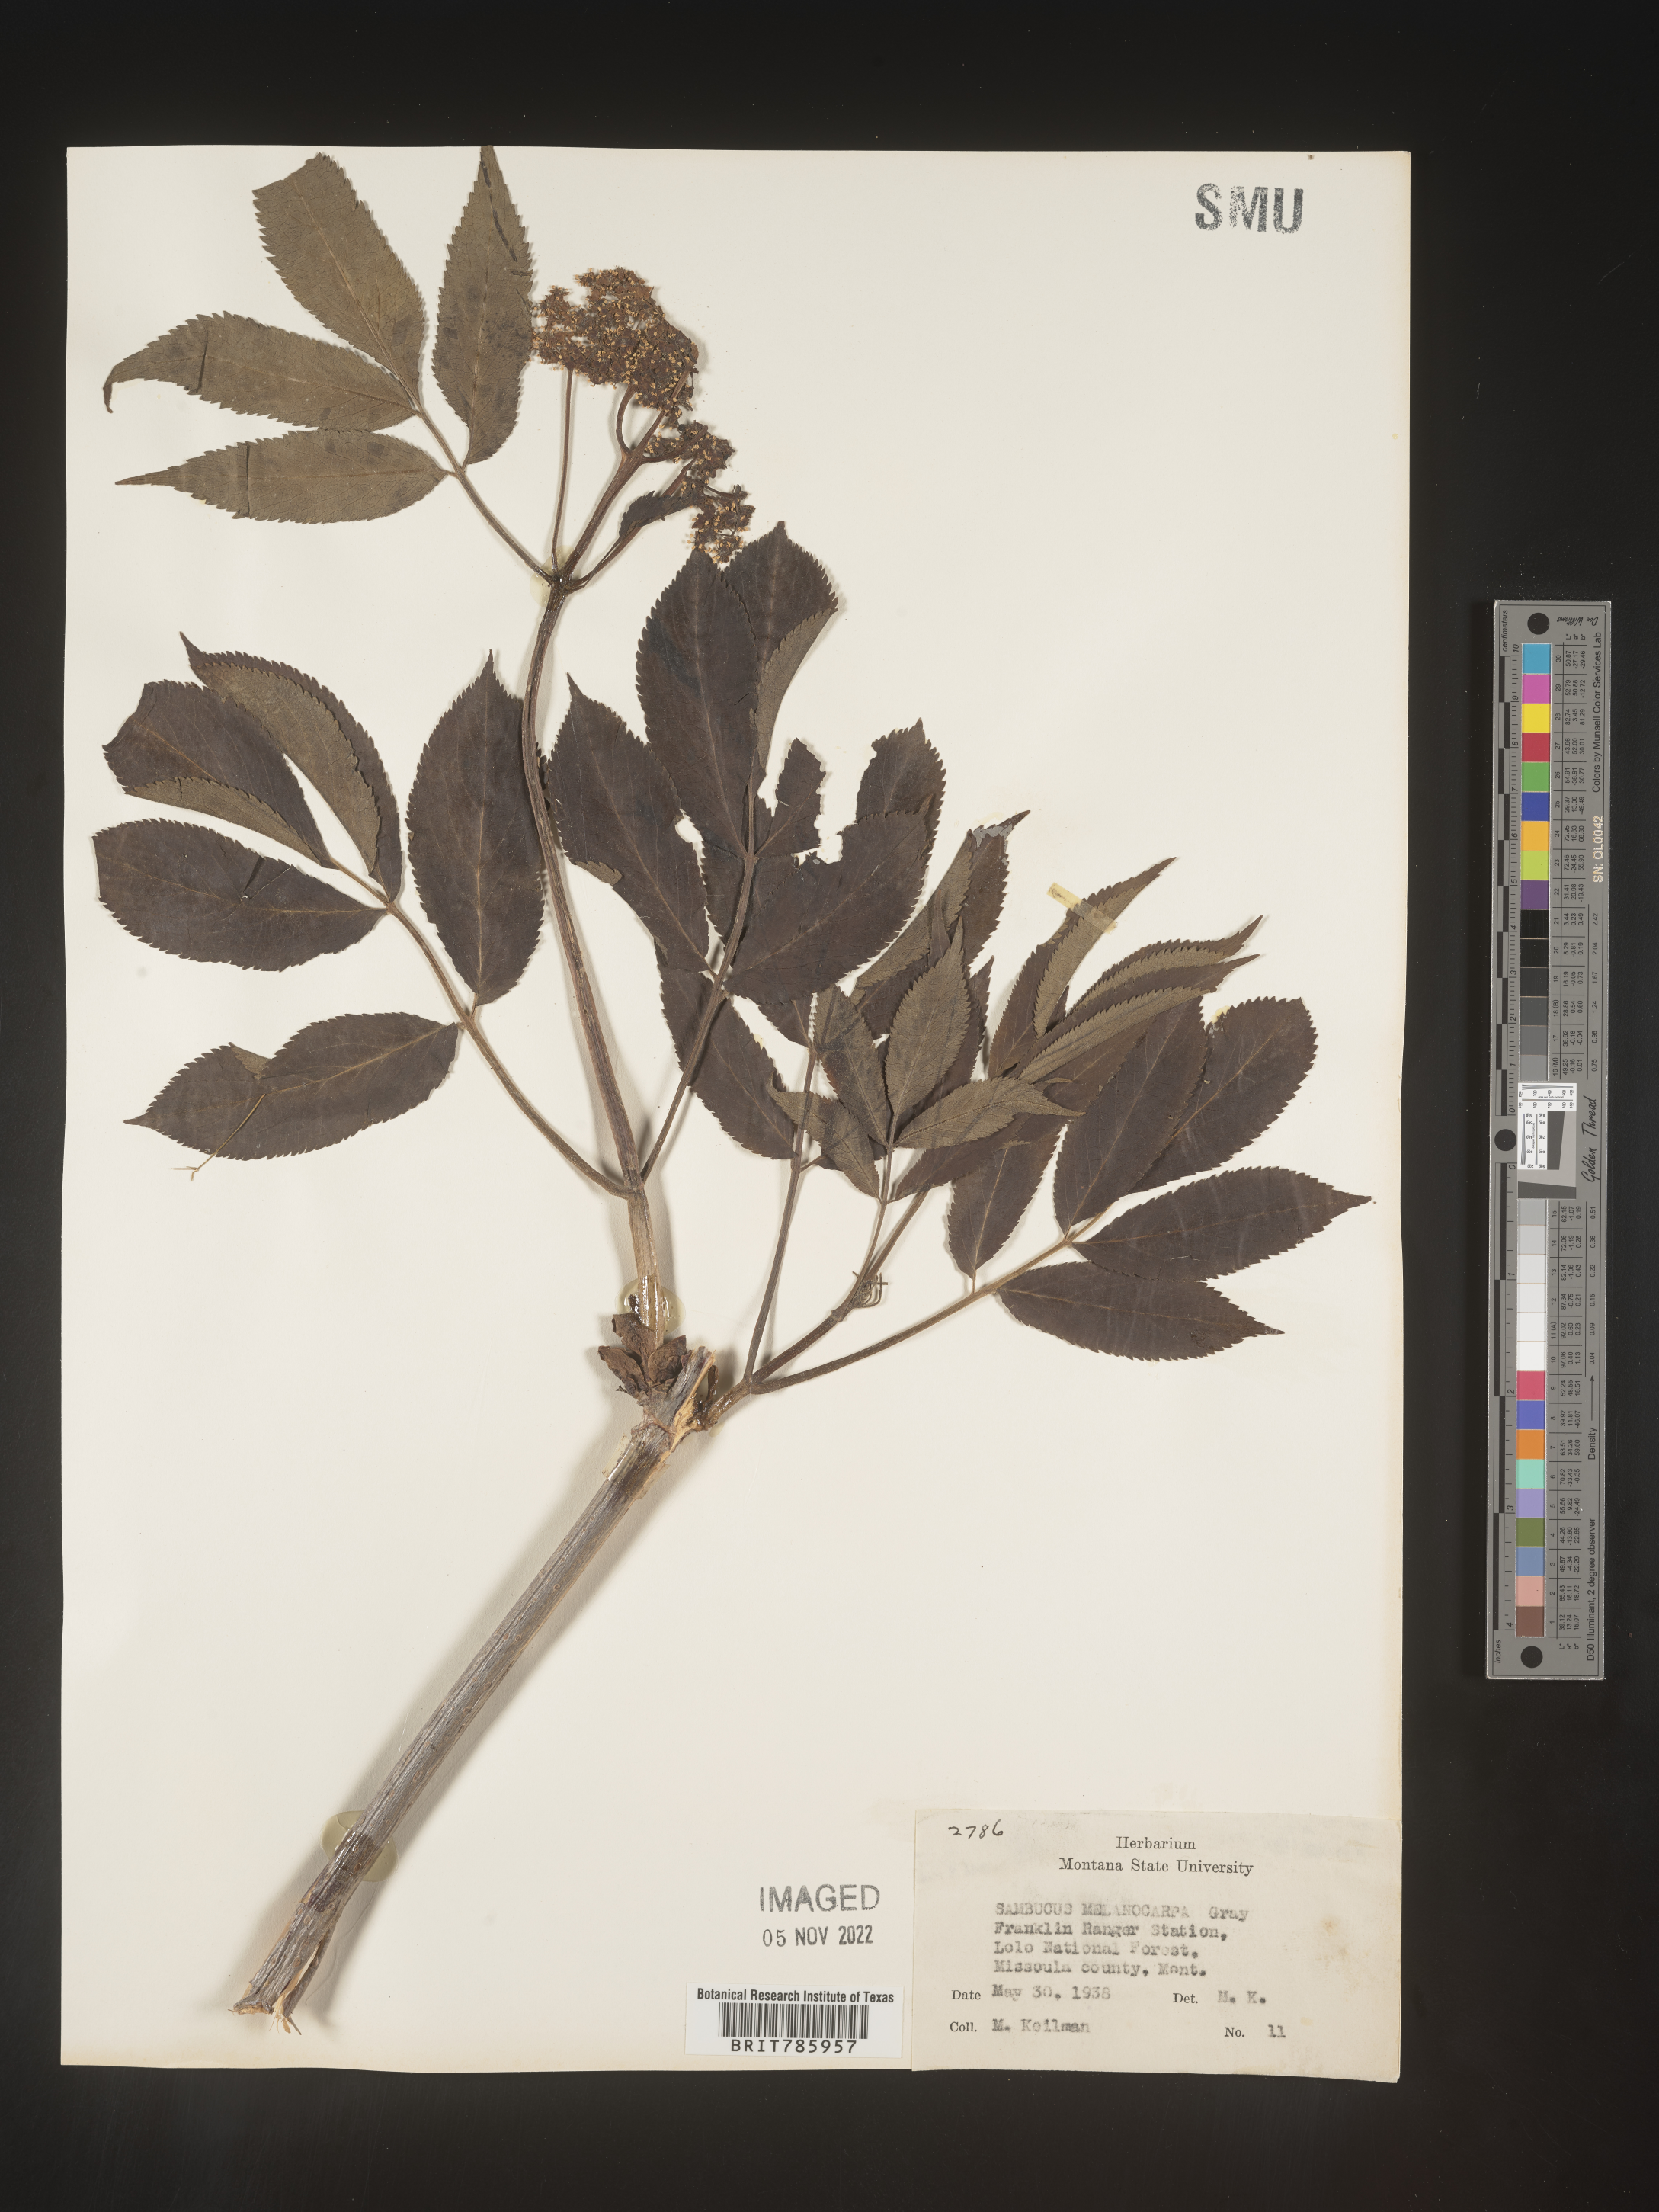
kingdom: Plantae
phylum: Tracheophyta
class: Magnoliopsida
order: Dipsacales
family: Viburnaceae
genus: Sambucus
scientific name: Sambucus racemosa
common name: Red-berried elder
